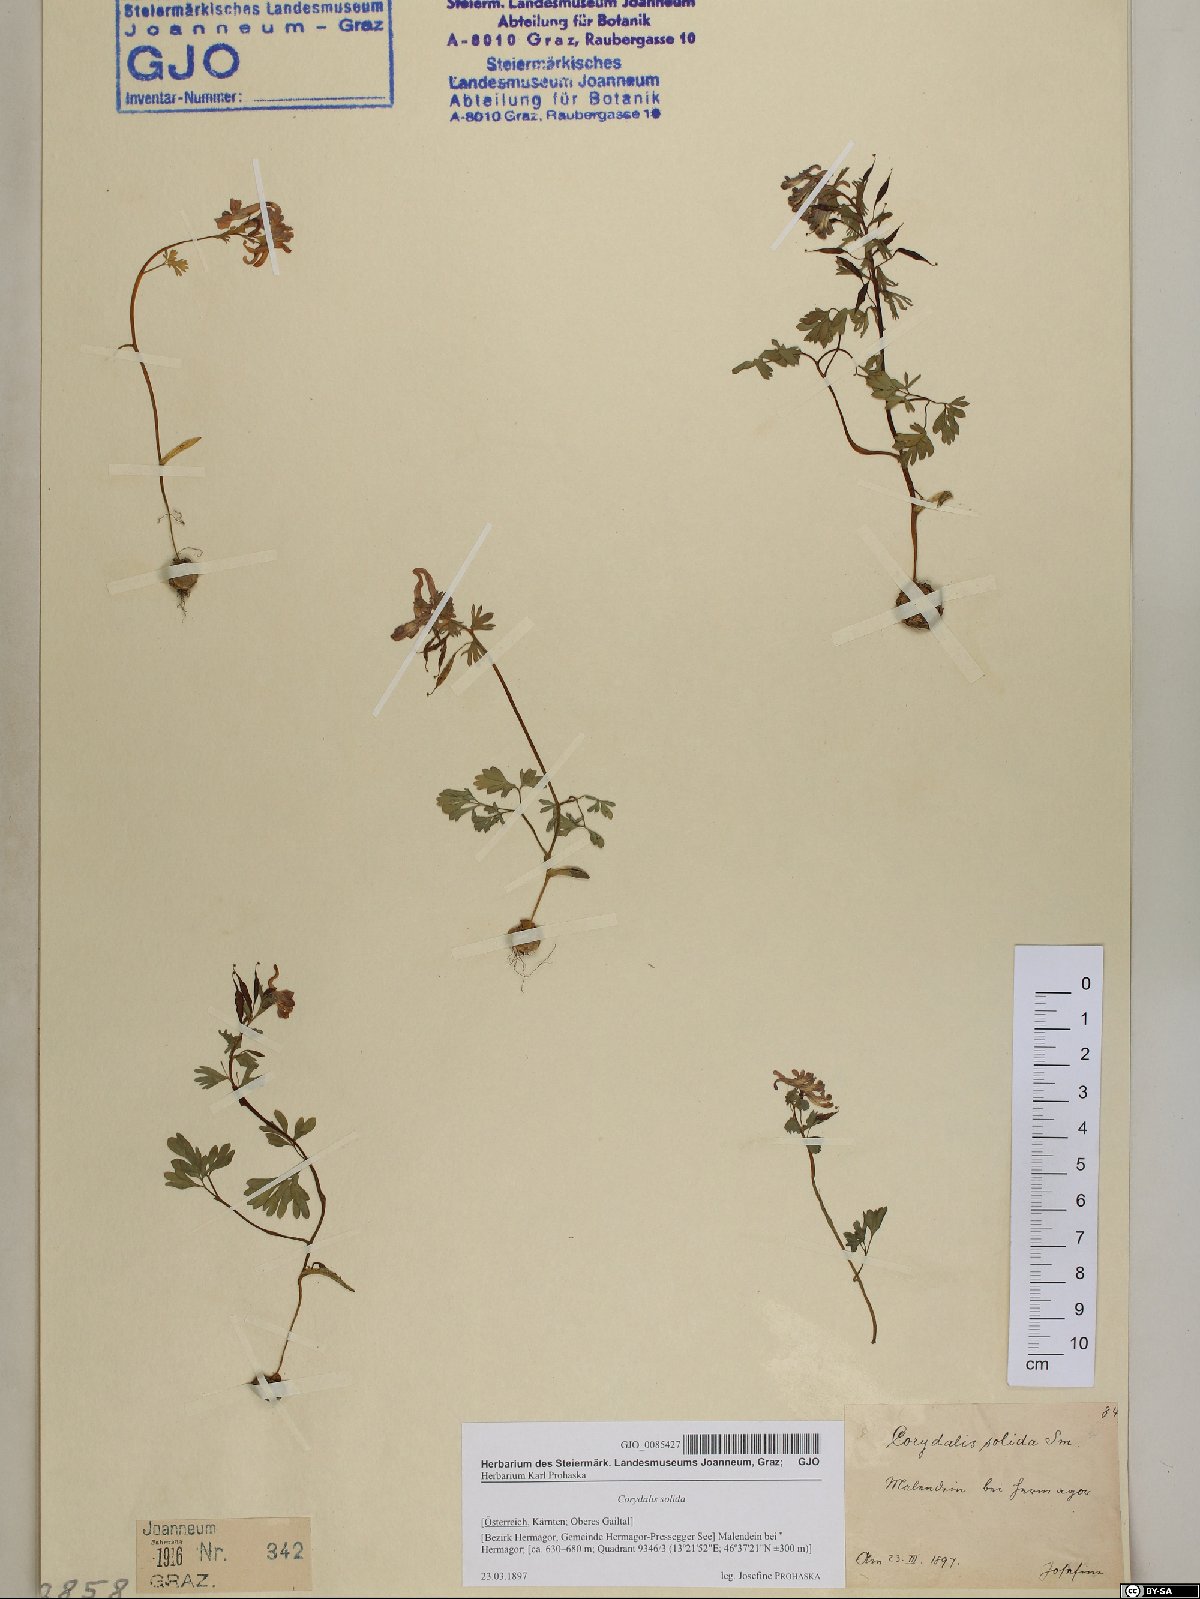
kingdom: Plantae
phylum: Tracheophyta
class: Magnoliopsida
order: Ranunculales
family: Papaveraceae
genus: Corydalis
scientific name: Corydalis solida
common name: Bird-in-a-bush
